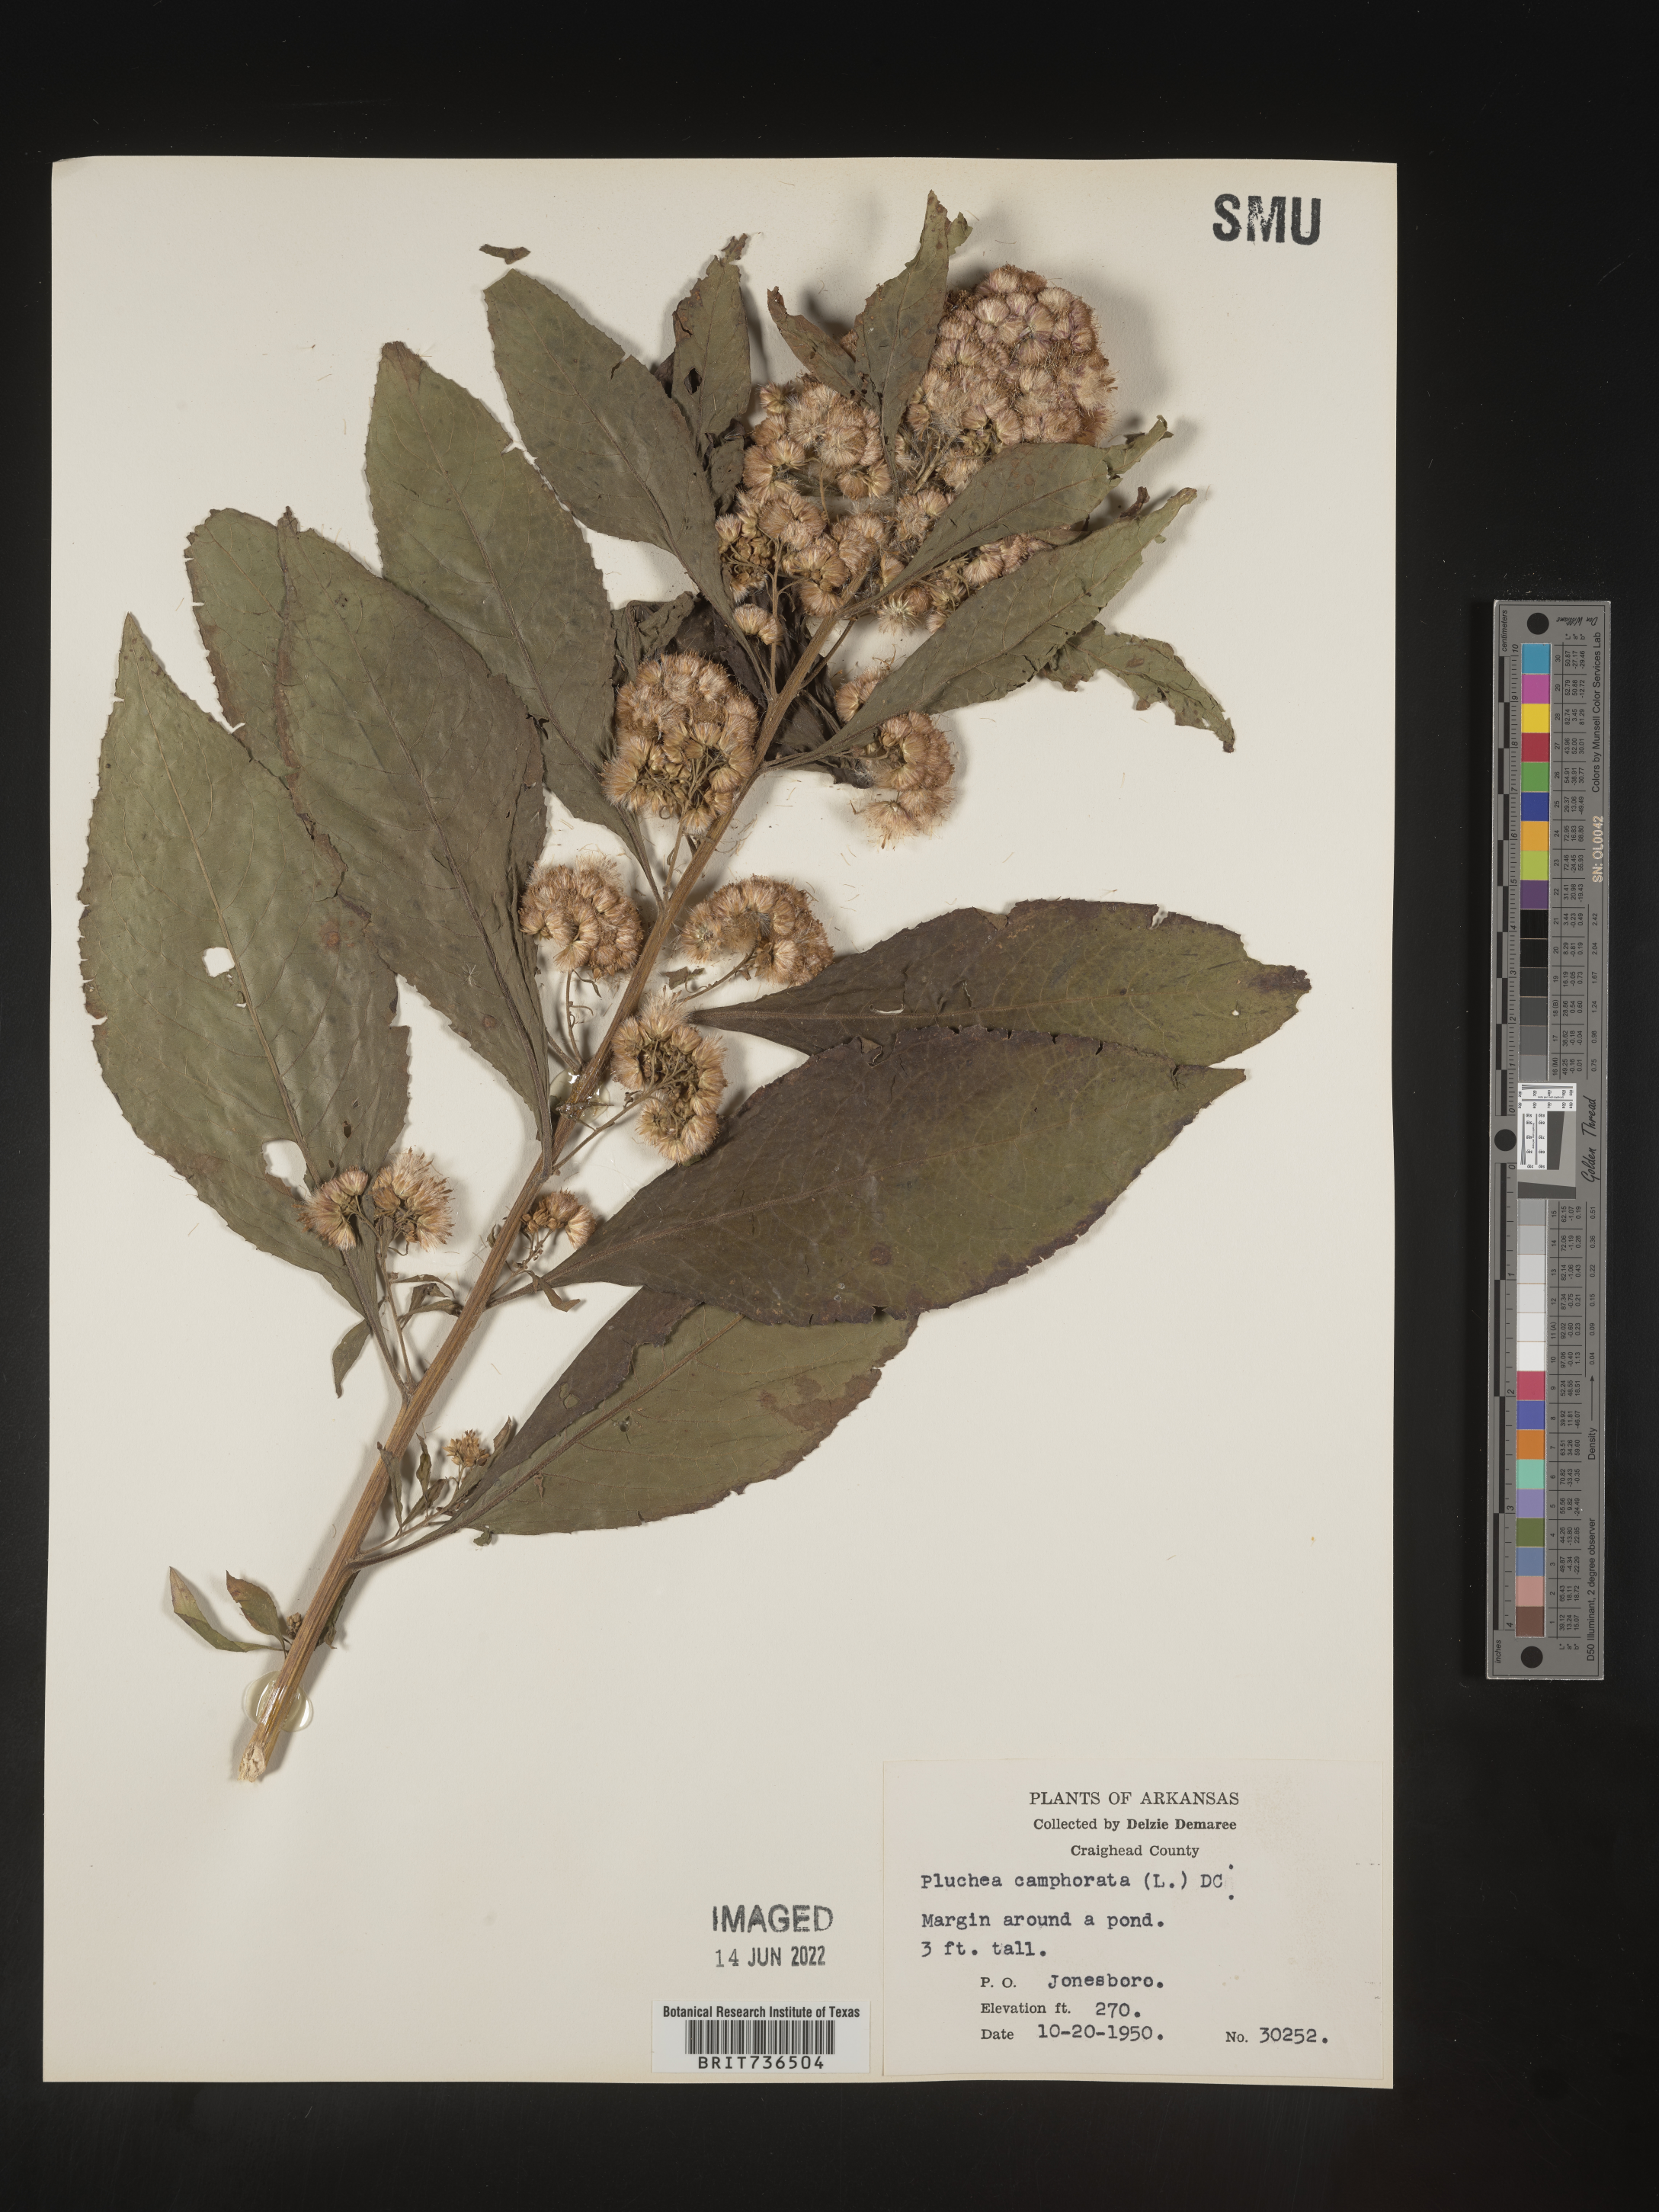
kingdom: Plantae
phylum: Tracheophyta
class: Magnoliopsida
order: Asterales
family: Asteraceae
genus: Pluchea
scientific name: Pluchea camphorata
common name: Camphor pluchea
